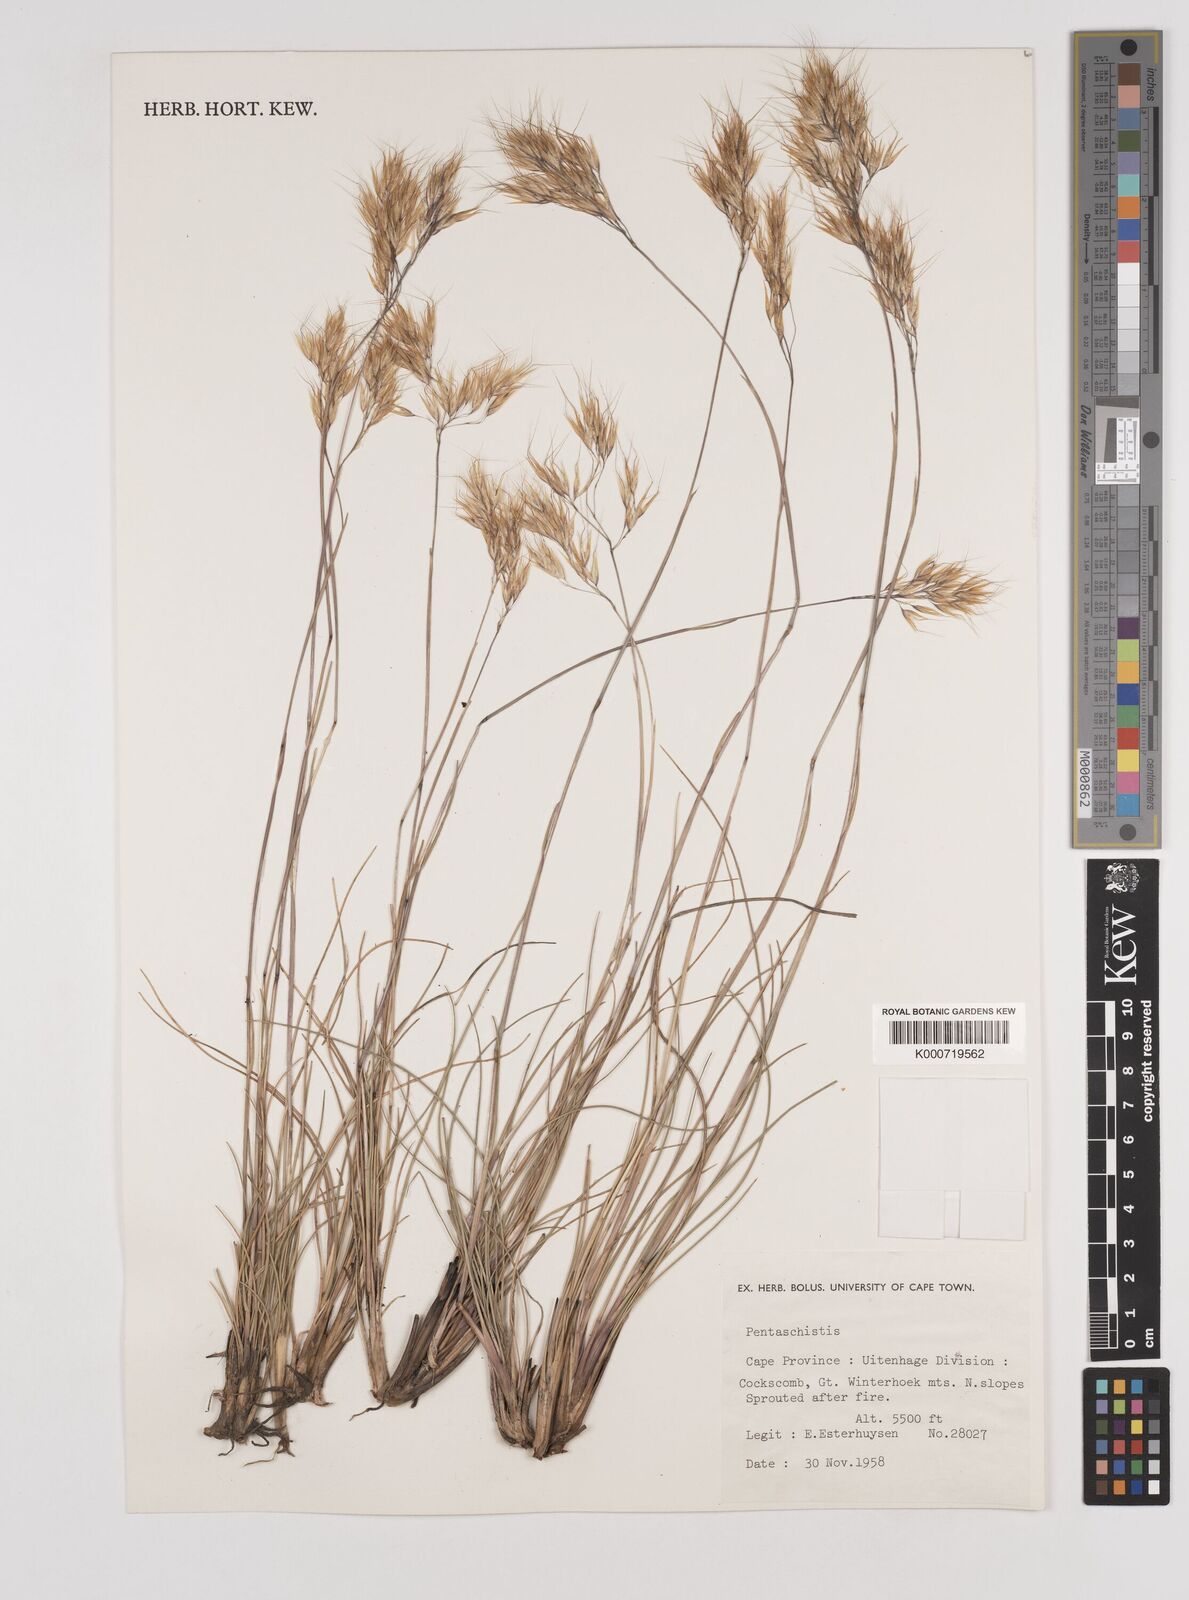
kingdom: Plantae
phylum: Tracheophyta
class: Liliopsida
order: Poales
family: Poaceae
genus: Pentameris
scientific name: Pentameris pyrophila
